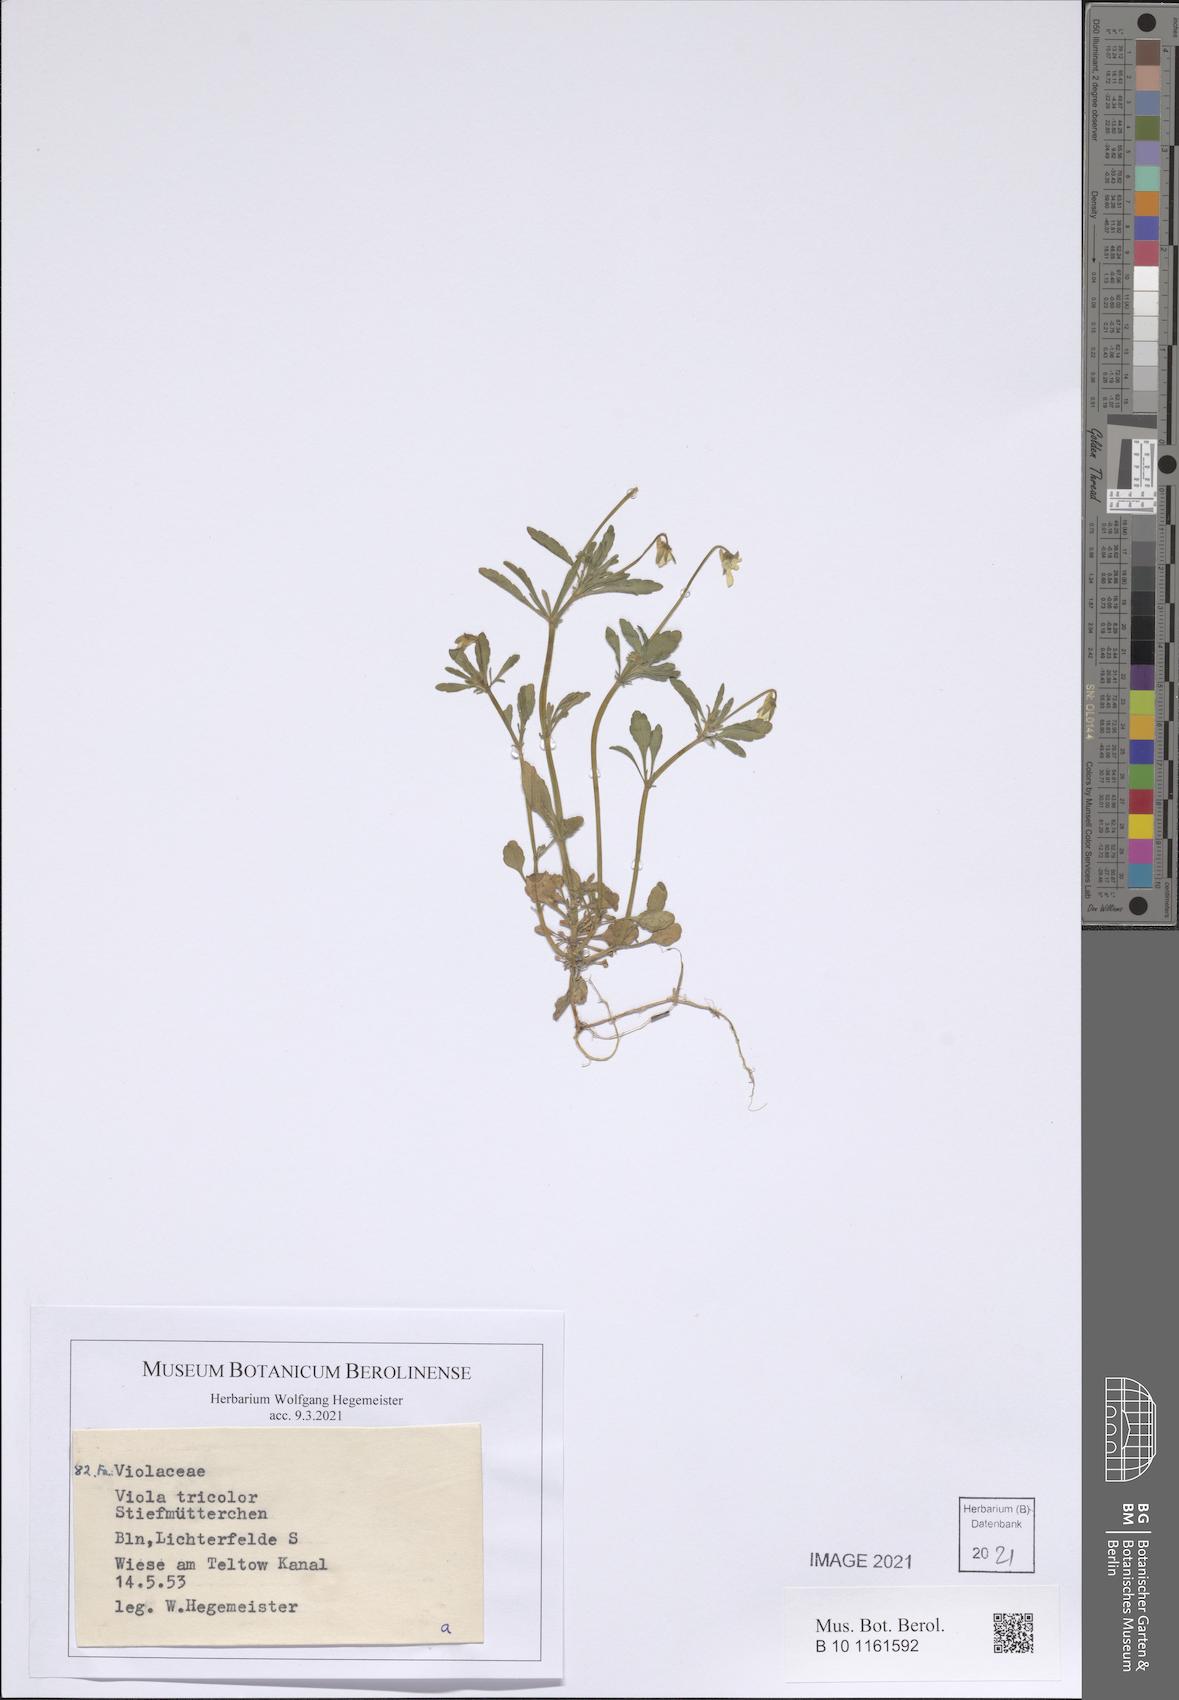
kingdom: Plantae
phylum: Tracheophyta
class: Magnoliopsida
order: Malpighiales
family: Violaceae
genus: Viola
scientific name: Viola tricolor
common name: Pansy
